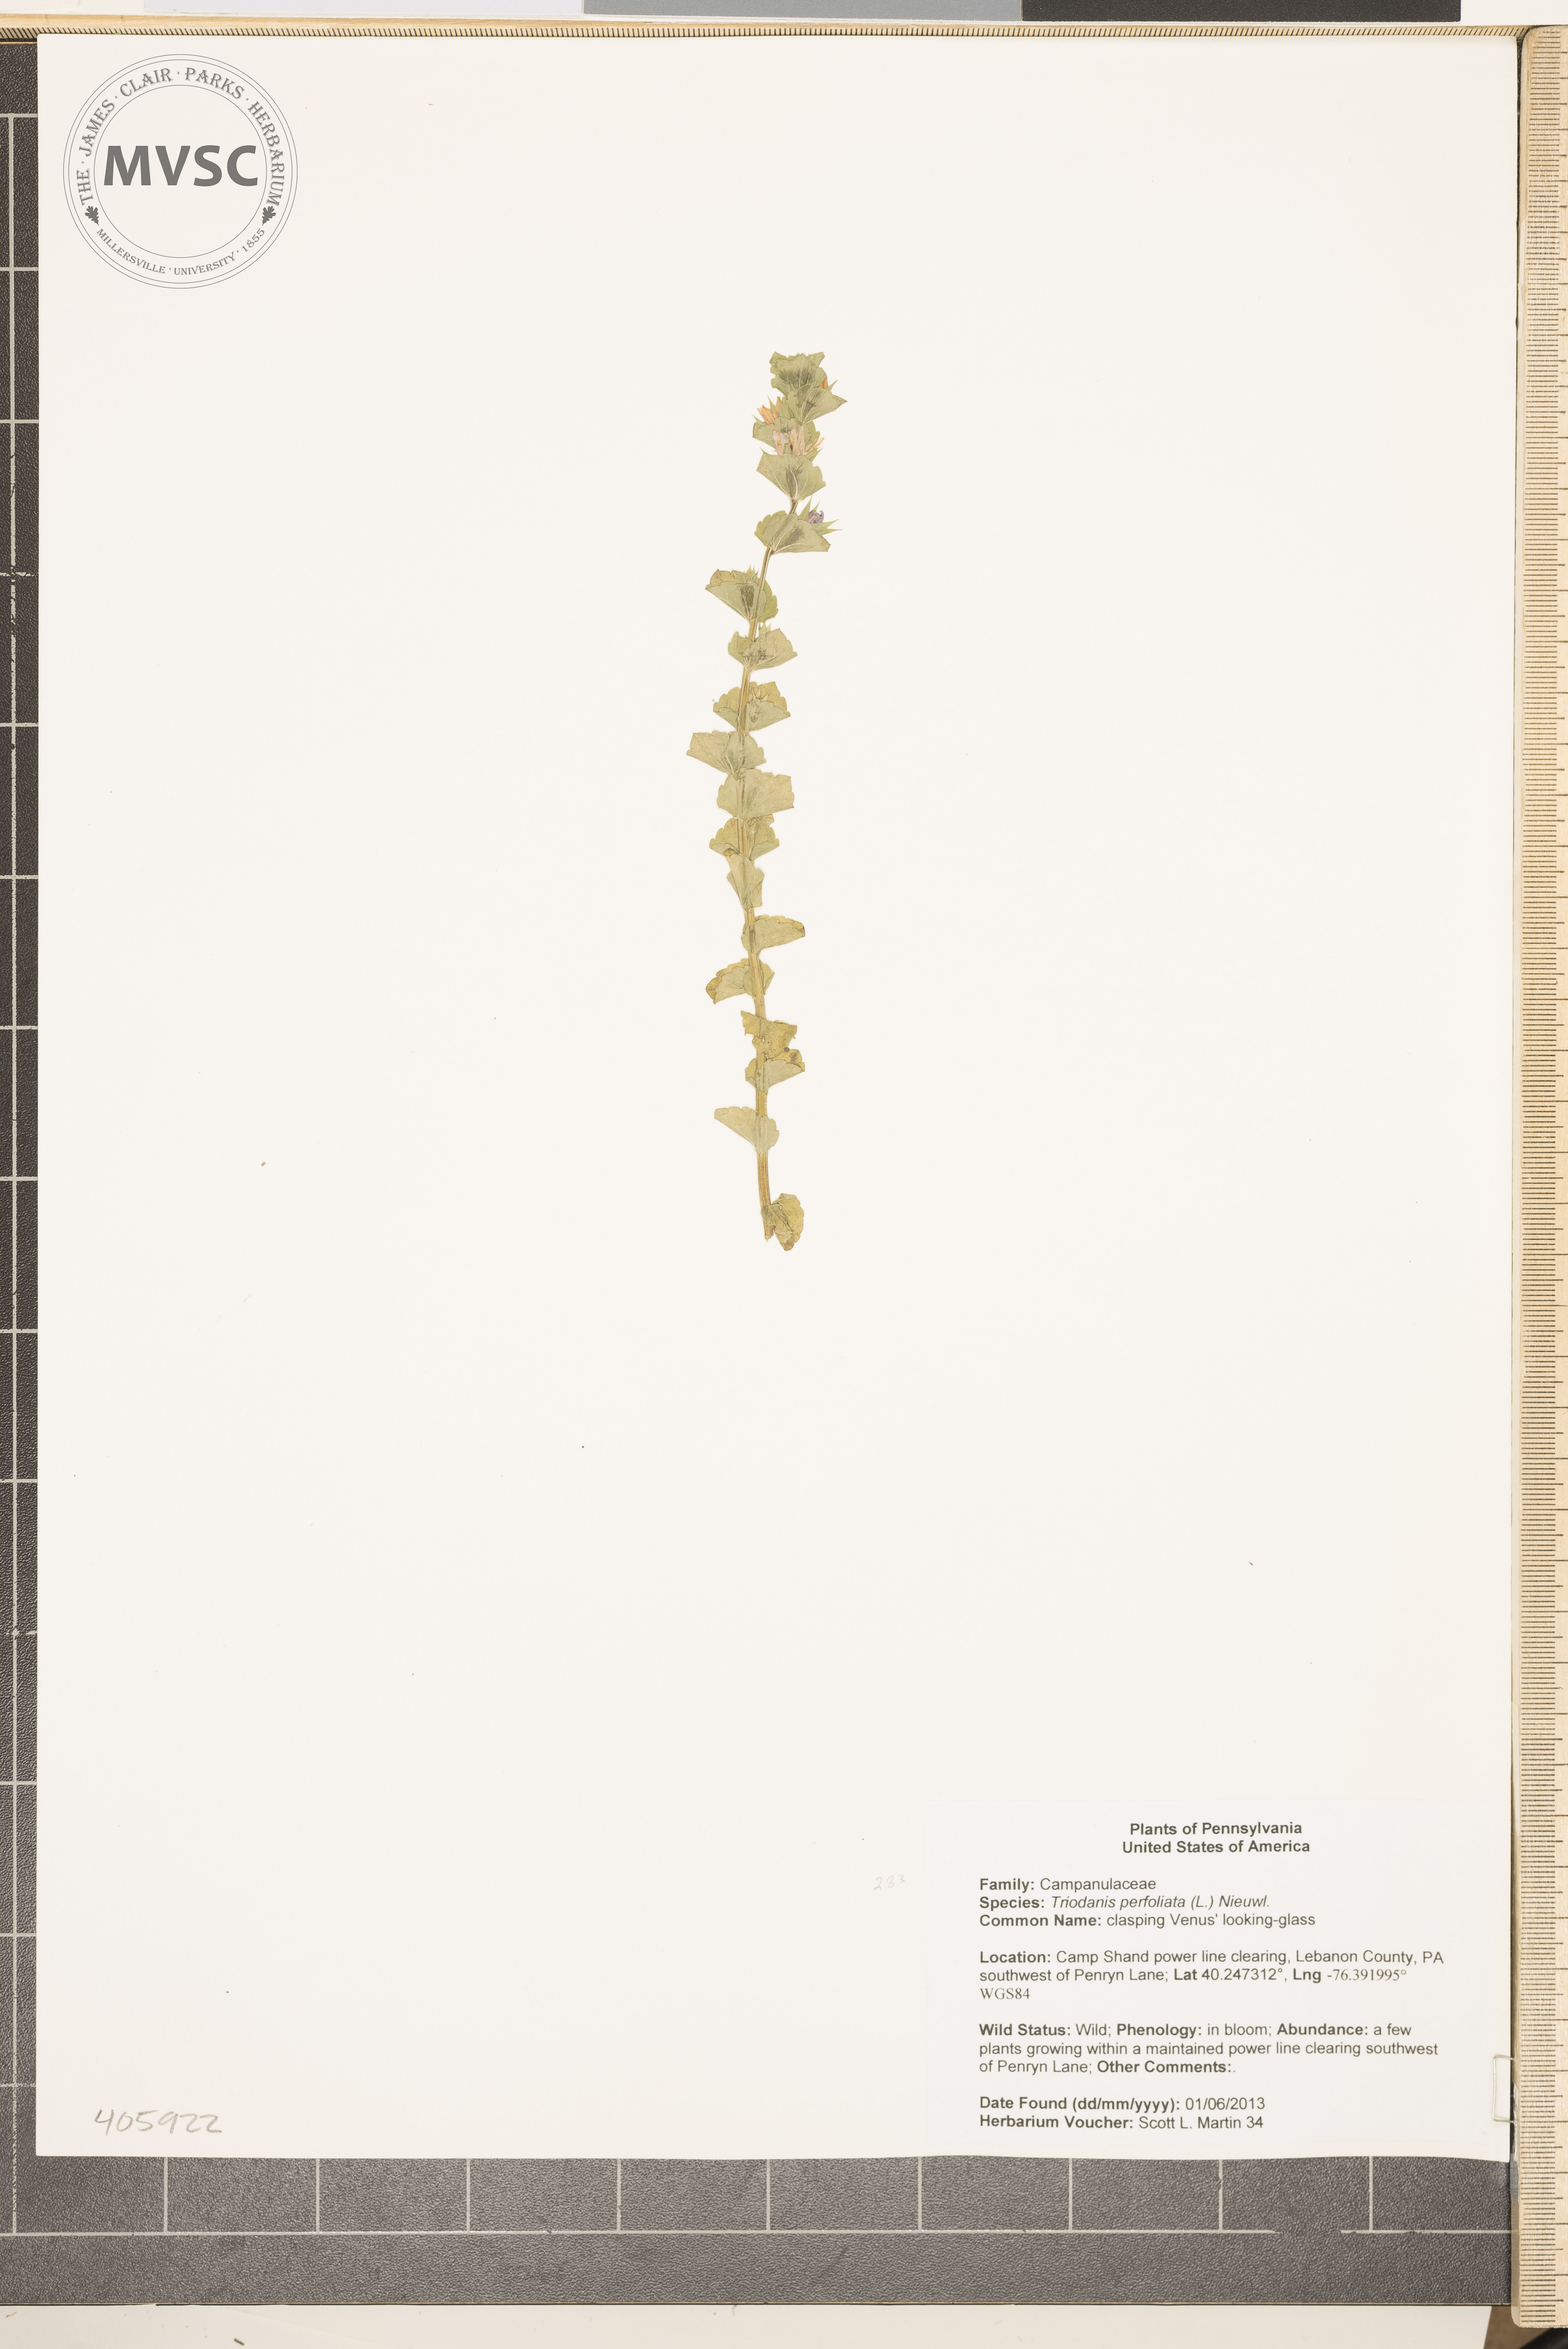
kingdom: Plantae
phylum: Tracheophyta
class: Magnoliopsida
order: Asterales
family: Campanulaceae
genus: Triodanis
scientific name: Triodanis perfoliata
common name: clasping Venus' looking-glass
